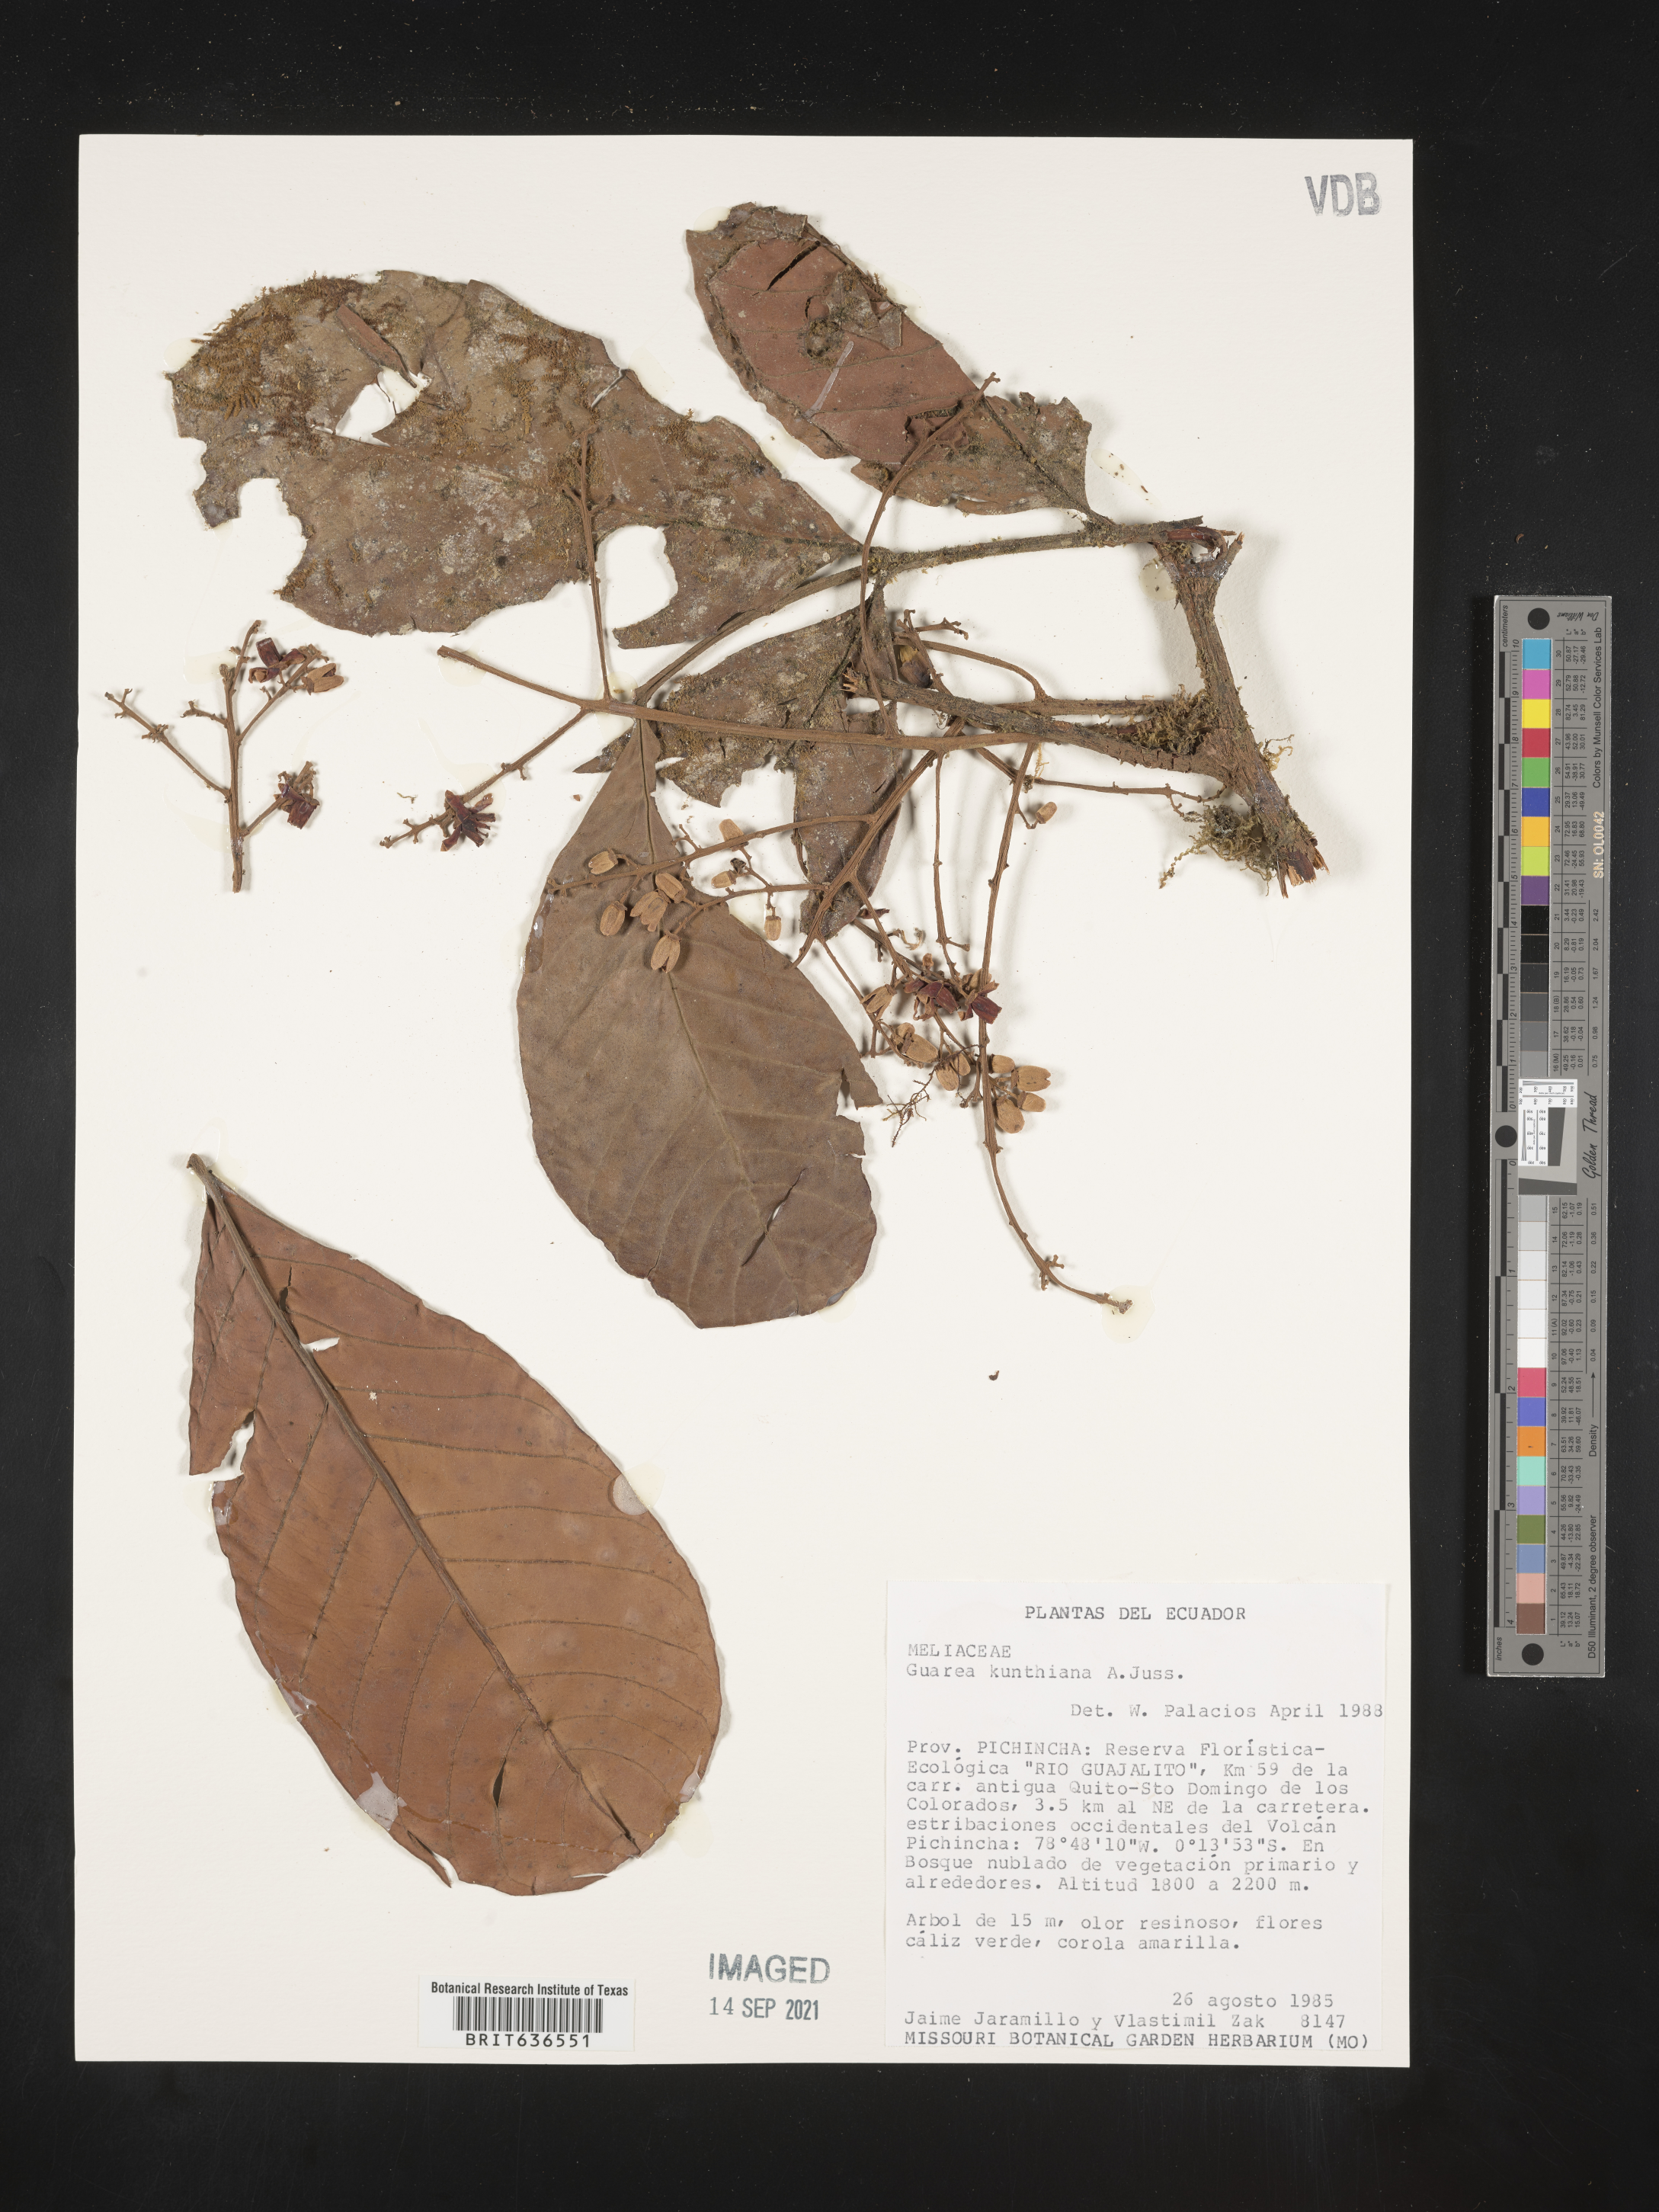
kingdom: Plantae
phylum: Tracheophyta
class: Magnoliopsida
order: Sapindales
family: Meliaceae
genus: Guarea
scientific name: Guarea
